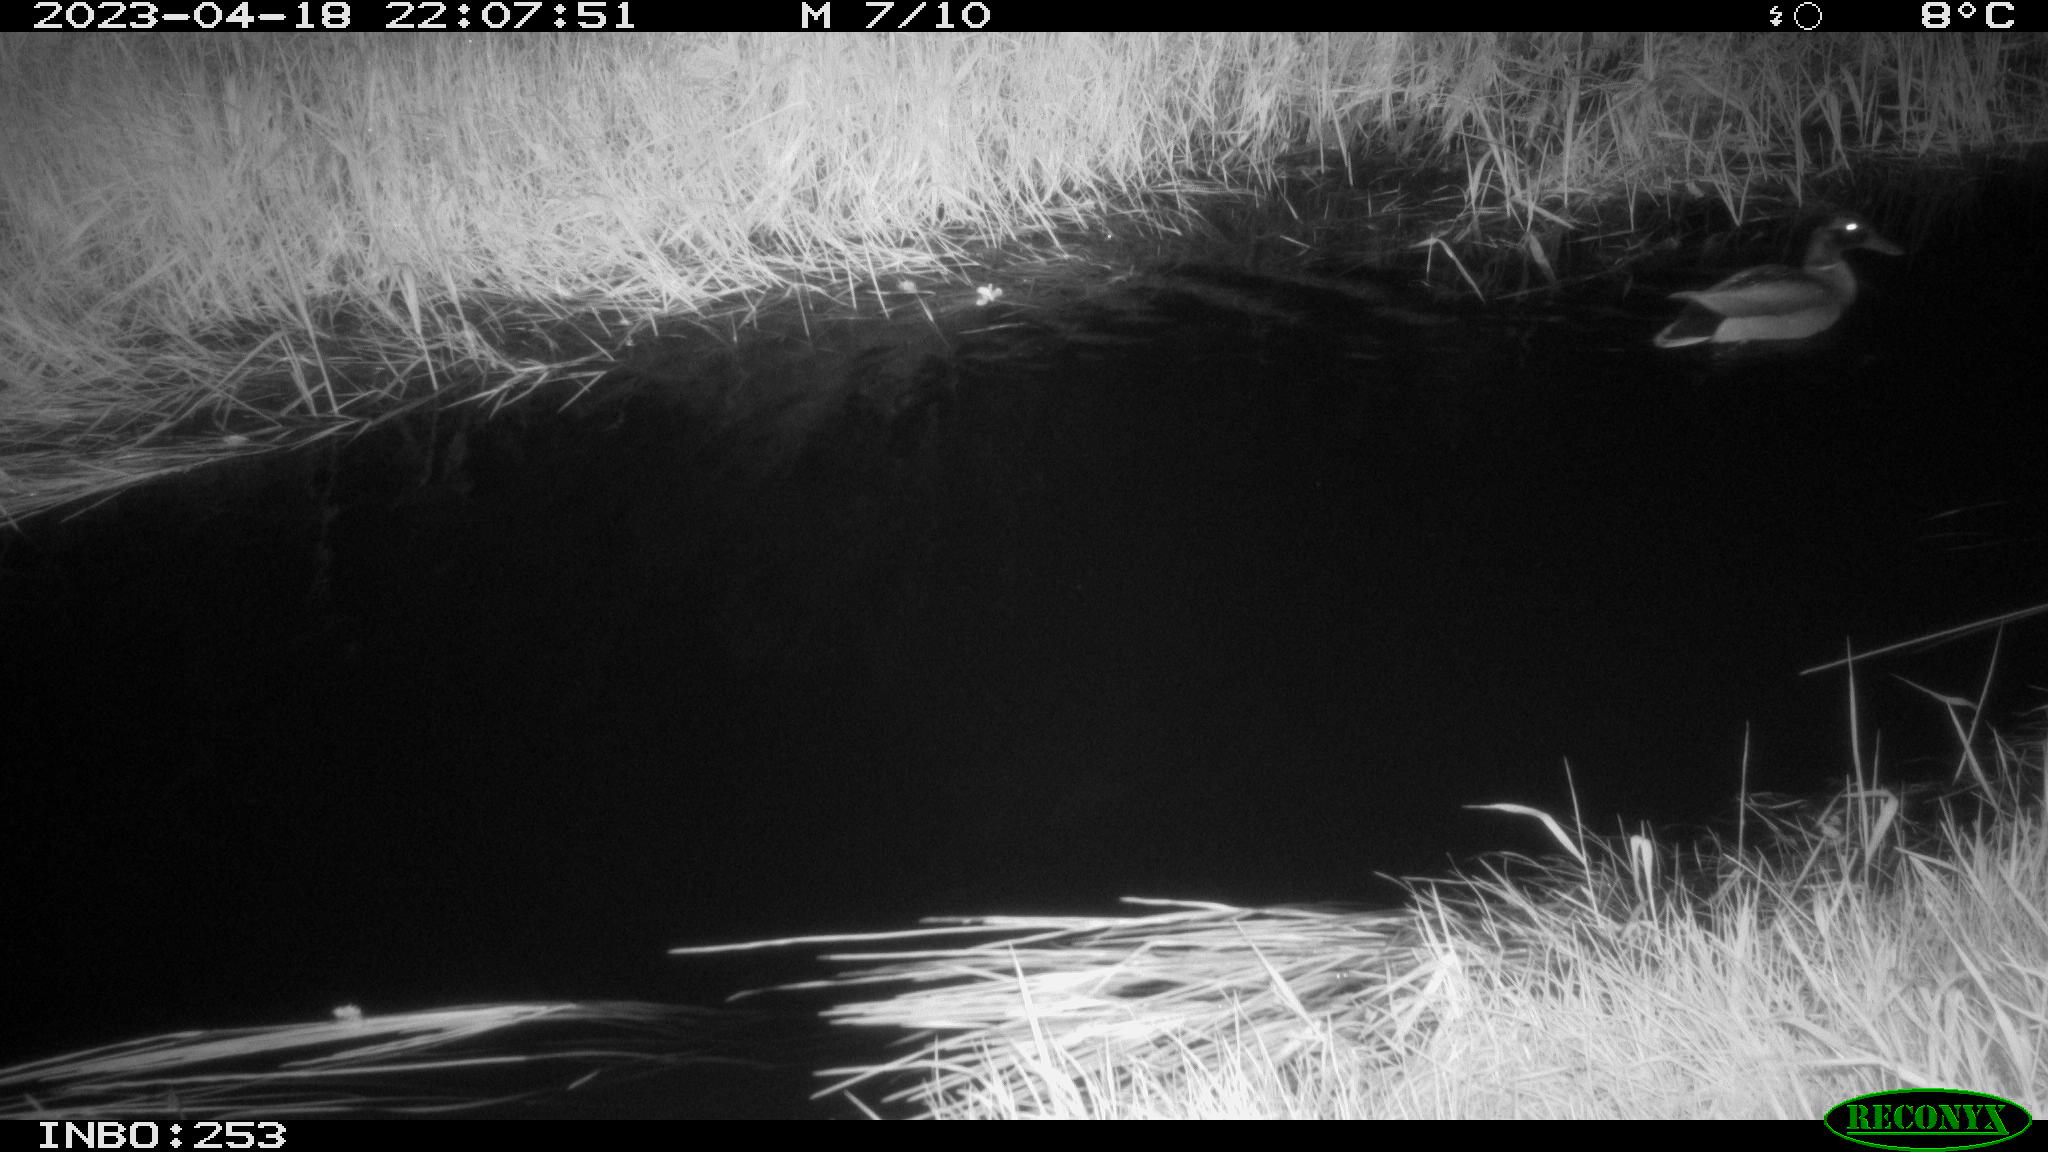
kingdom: Animalia
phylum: Chordata
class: Aves
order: Anseriformes
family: Anatidae
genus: Anas
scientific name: Anas
